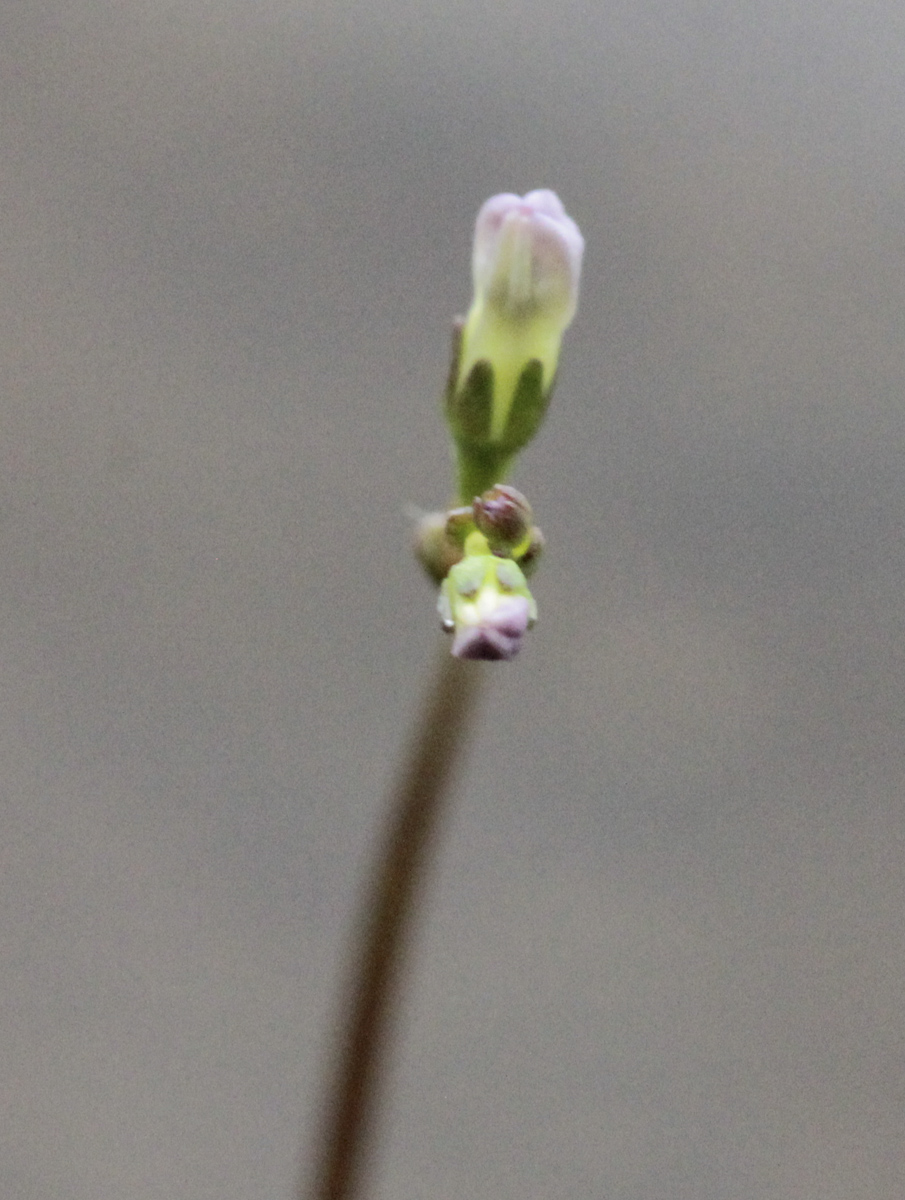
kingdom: Plantae
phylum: Tracheophyta
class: Magnoliopsida
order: Asterales
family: Campanulaceae
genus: Lobelia
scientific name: Lobelia dortmanna
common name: Water lobelia
